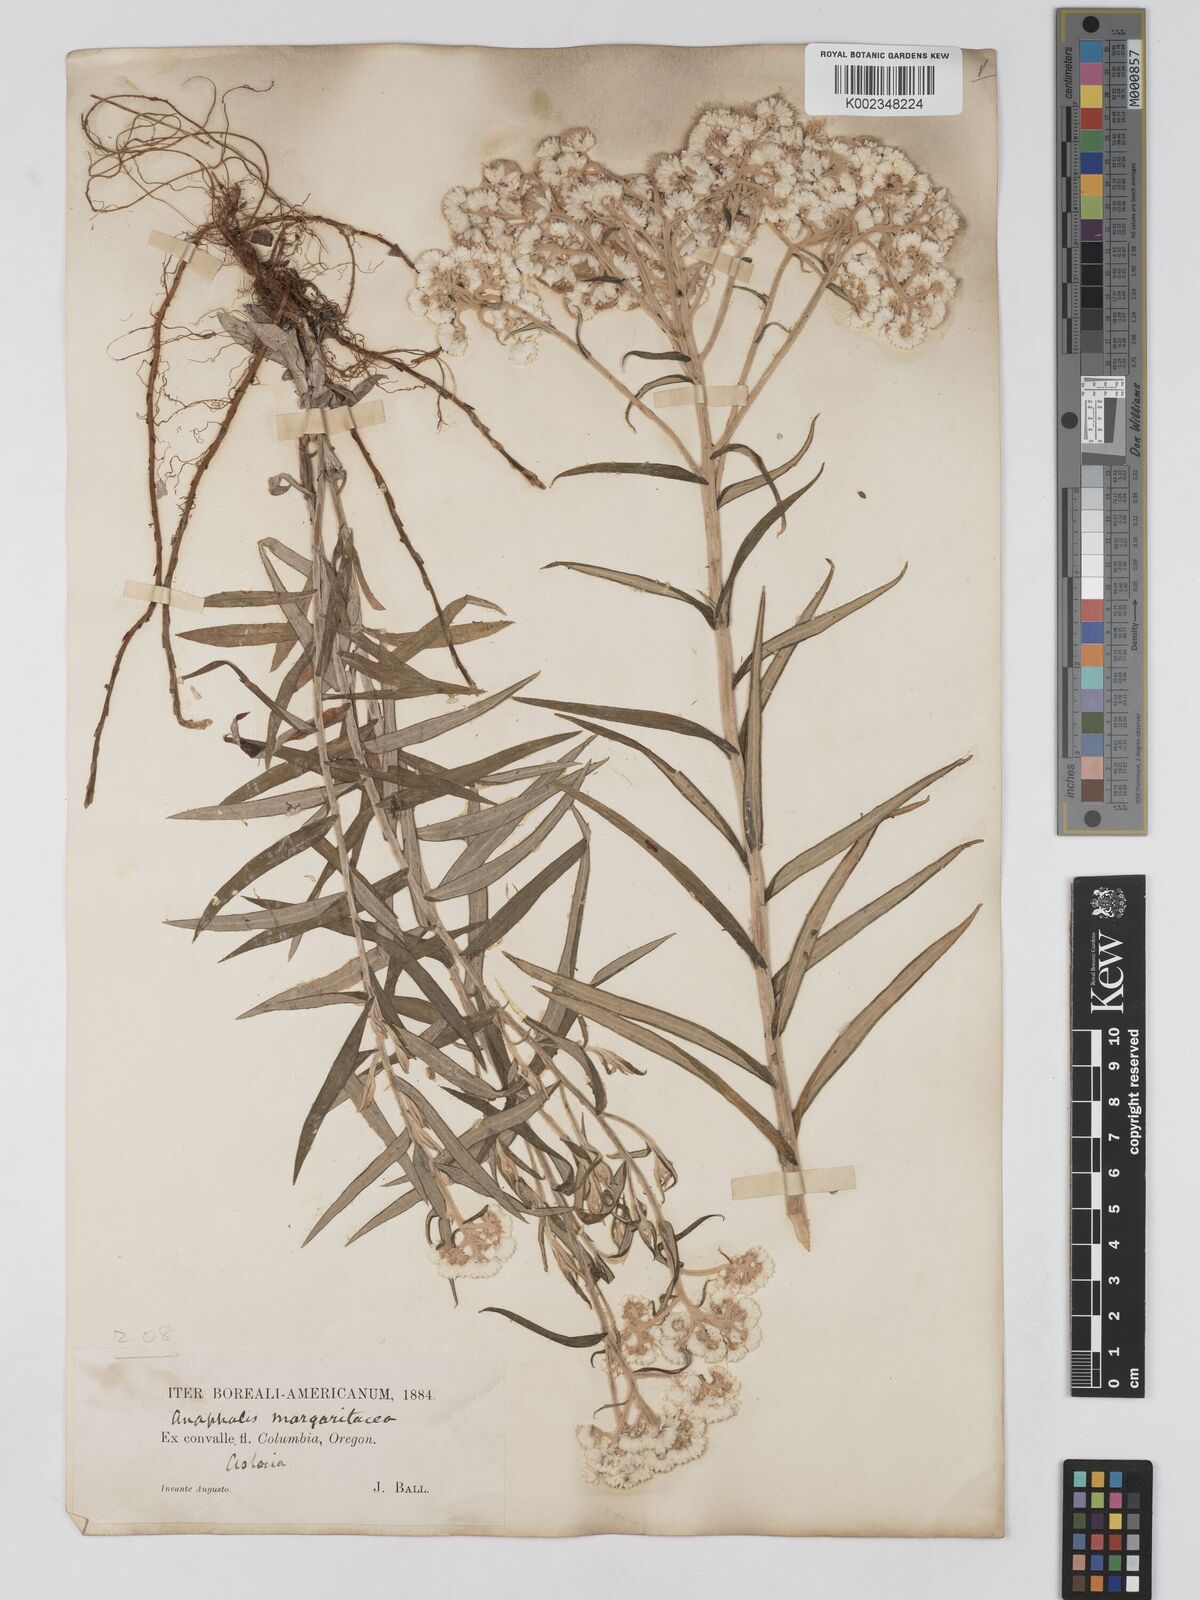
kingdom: Plantae
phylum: Tracheophyta
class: Magnoliopsida
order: Asterales
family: Asteraceae
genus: Anaphalis
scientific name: Anaphalis margaritacea
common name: Pearly everlasting
